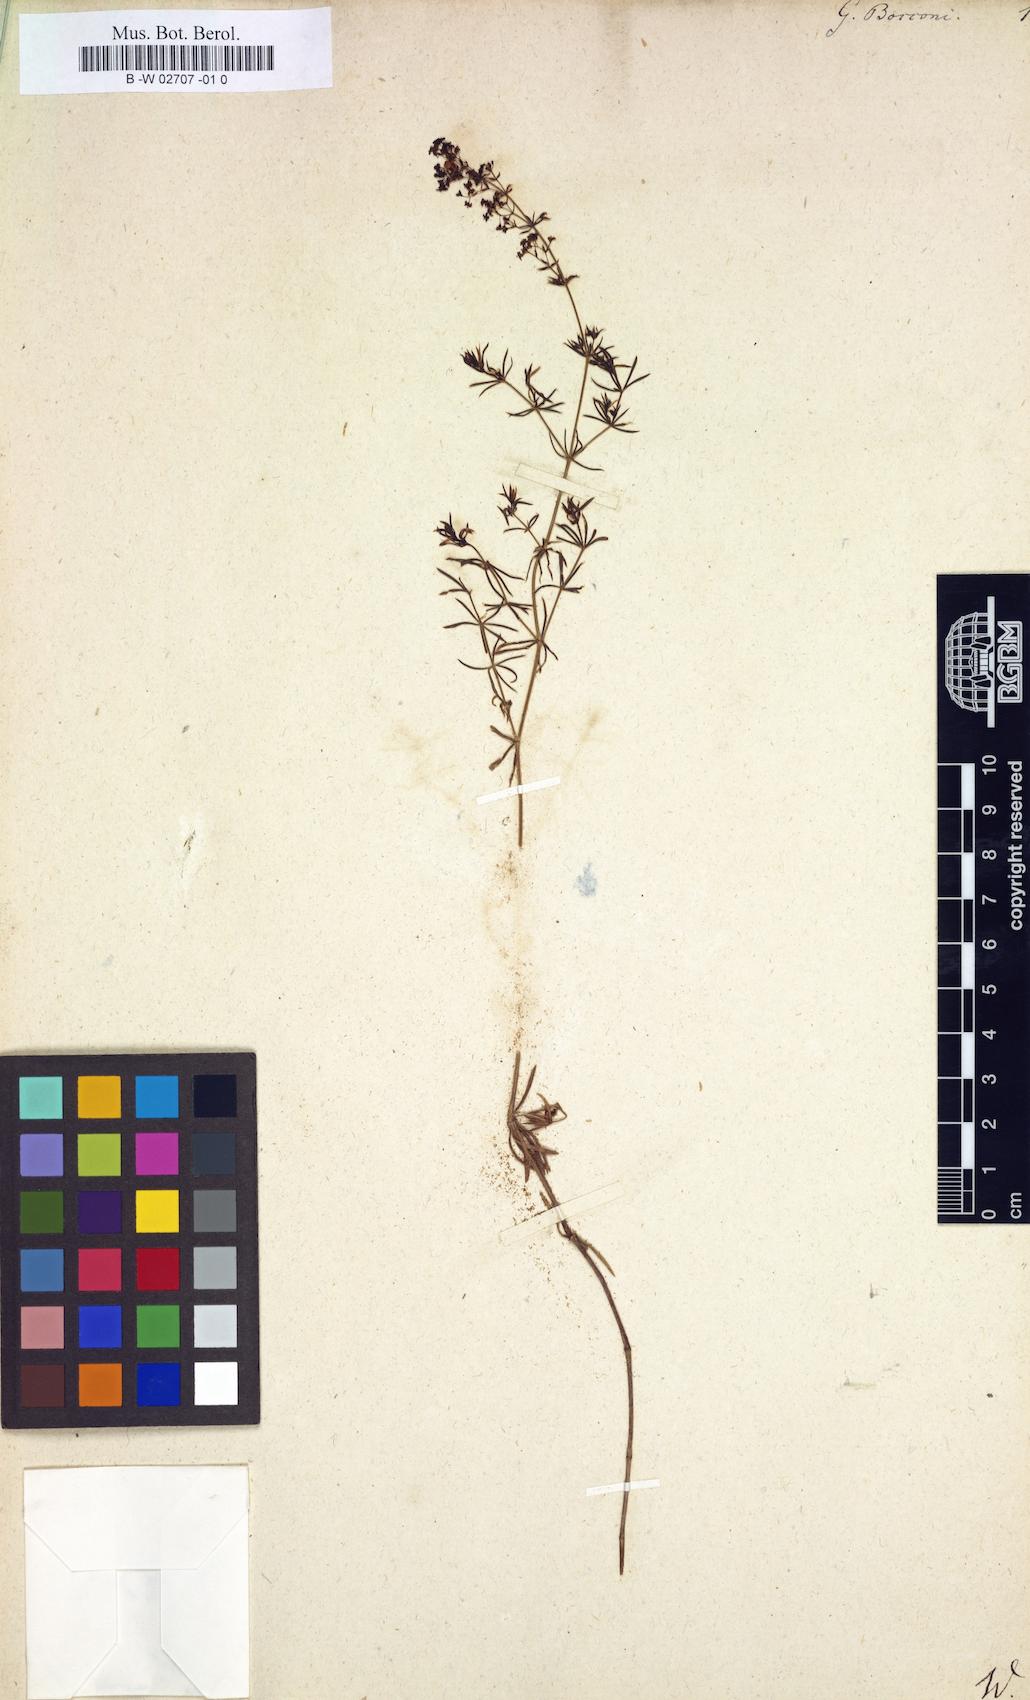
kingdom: Plantae
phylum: Tracheophyta
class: Magnoliopsida
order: Gentianales
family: Rubiaceae
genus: Galium
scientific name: Galium
